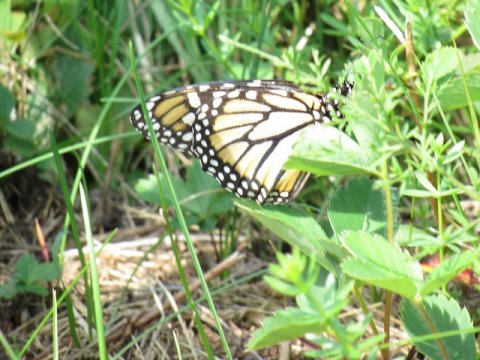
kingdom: Animalia
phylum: Arthropoda
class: Insecta
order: Lepidoptera
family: Nymphalidae
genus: Danaus
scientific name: Danaus plexippus
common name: Monarch
